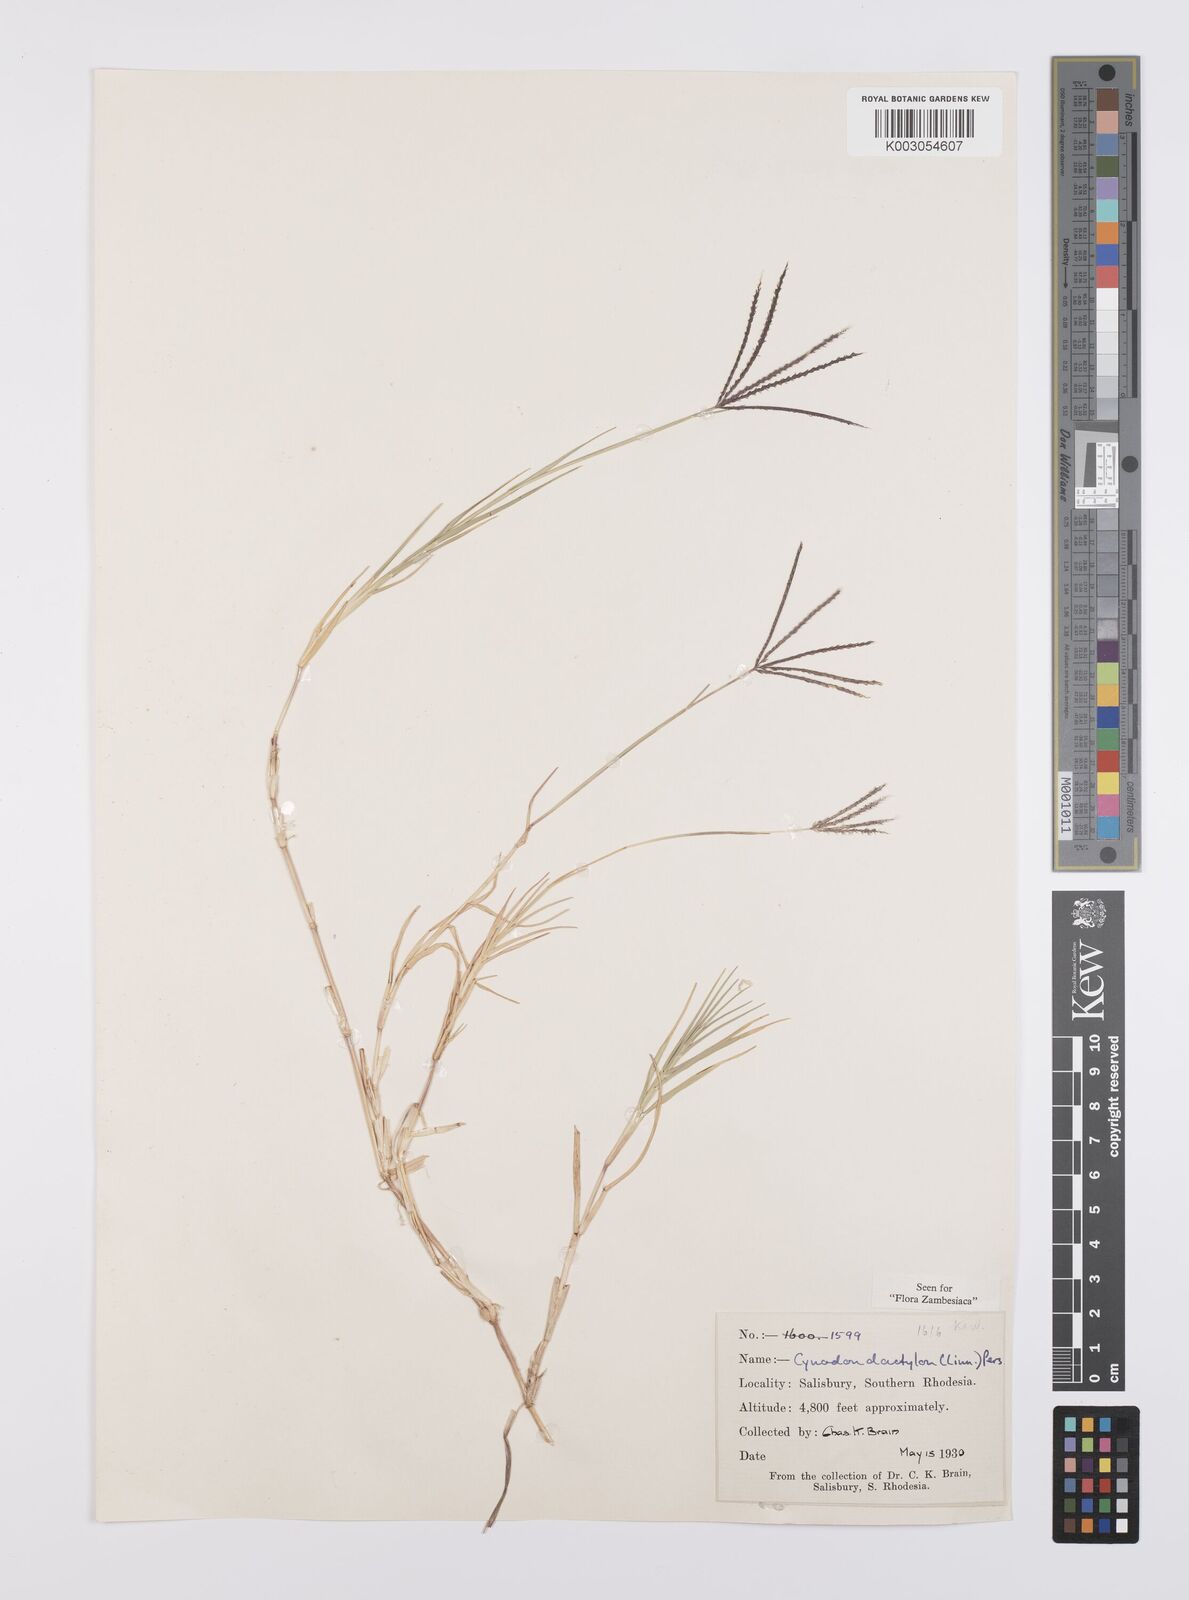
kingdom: Plantae
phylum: Tracheophyta
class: Liliopsida
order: Poales
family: Poaceae
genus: Cynodon
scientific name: Cynodon dactylon
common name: Bermuda grass
